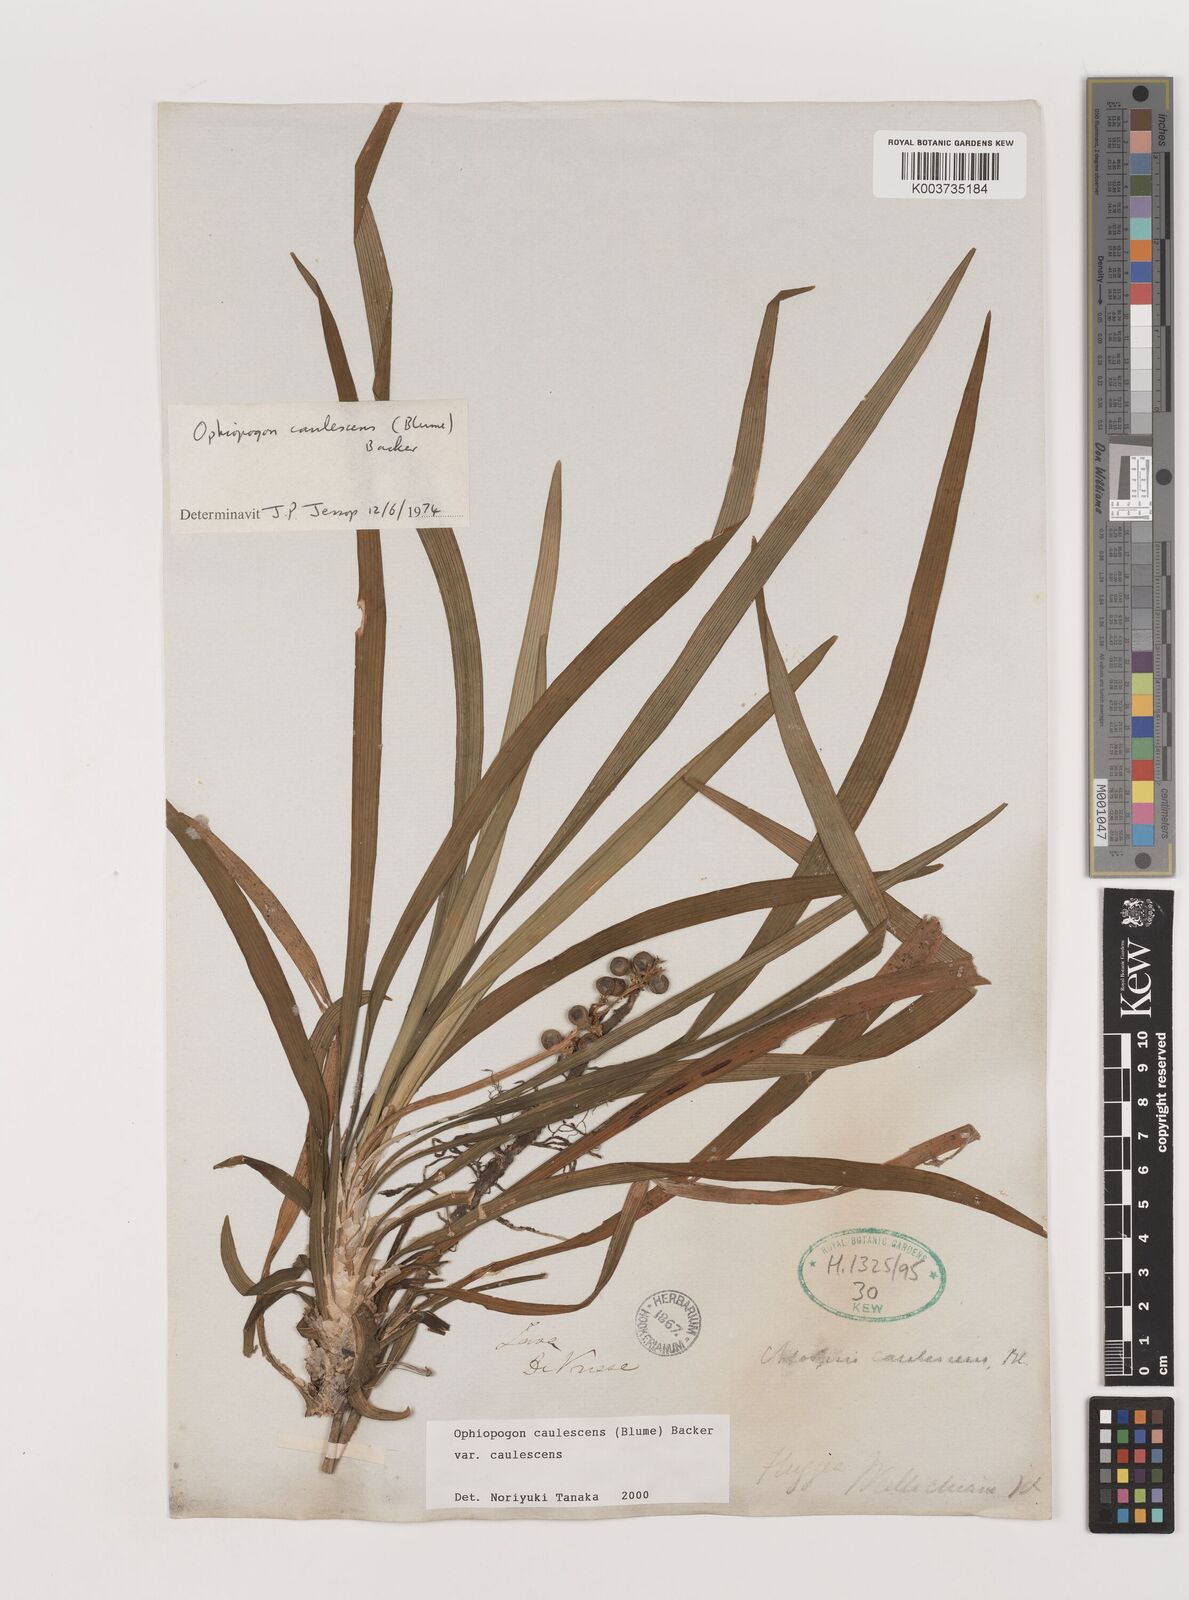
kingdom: Plantae
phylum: Tracheophyta
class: Liliopsida
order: Asparagales
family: Asparagaceae
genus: Ophiopogon
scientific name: Ophiopogon caulescens
